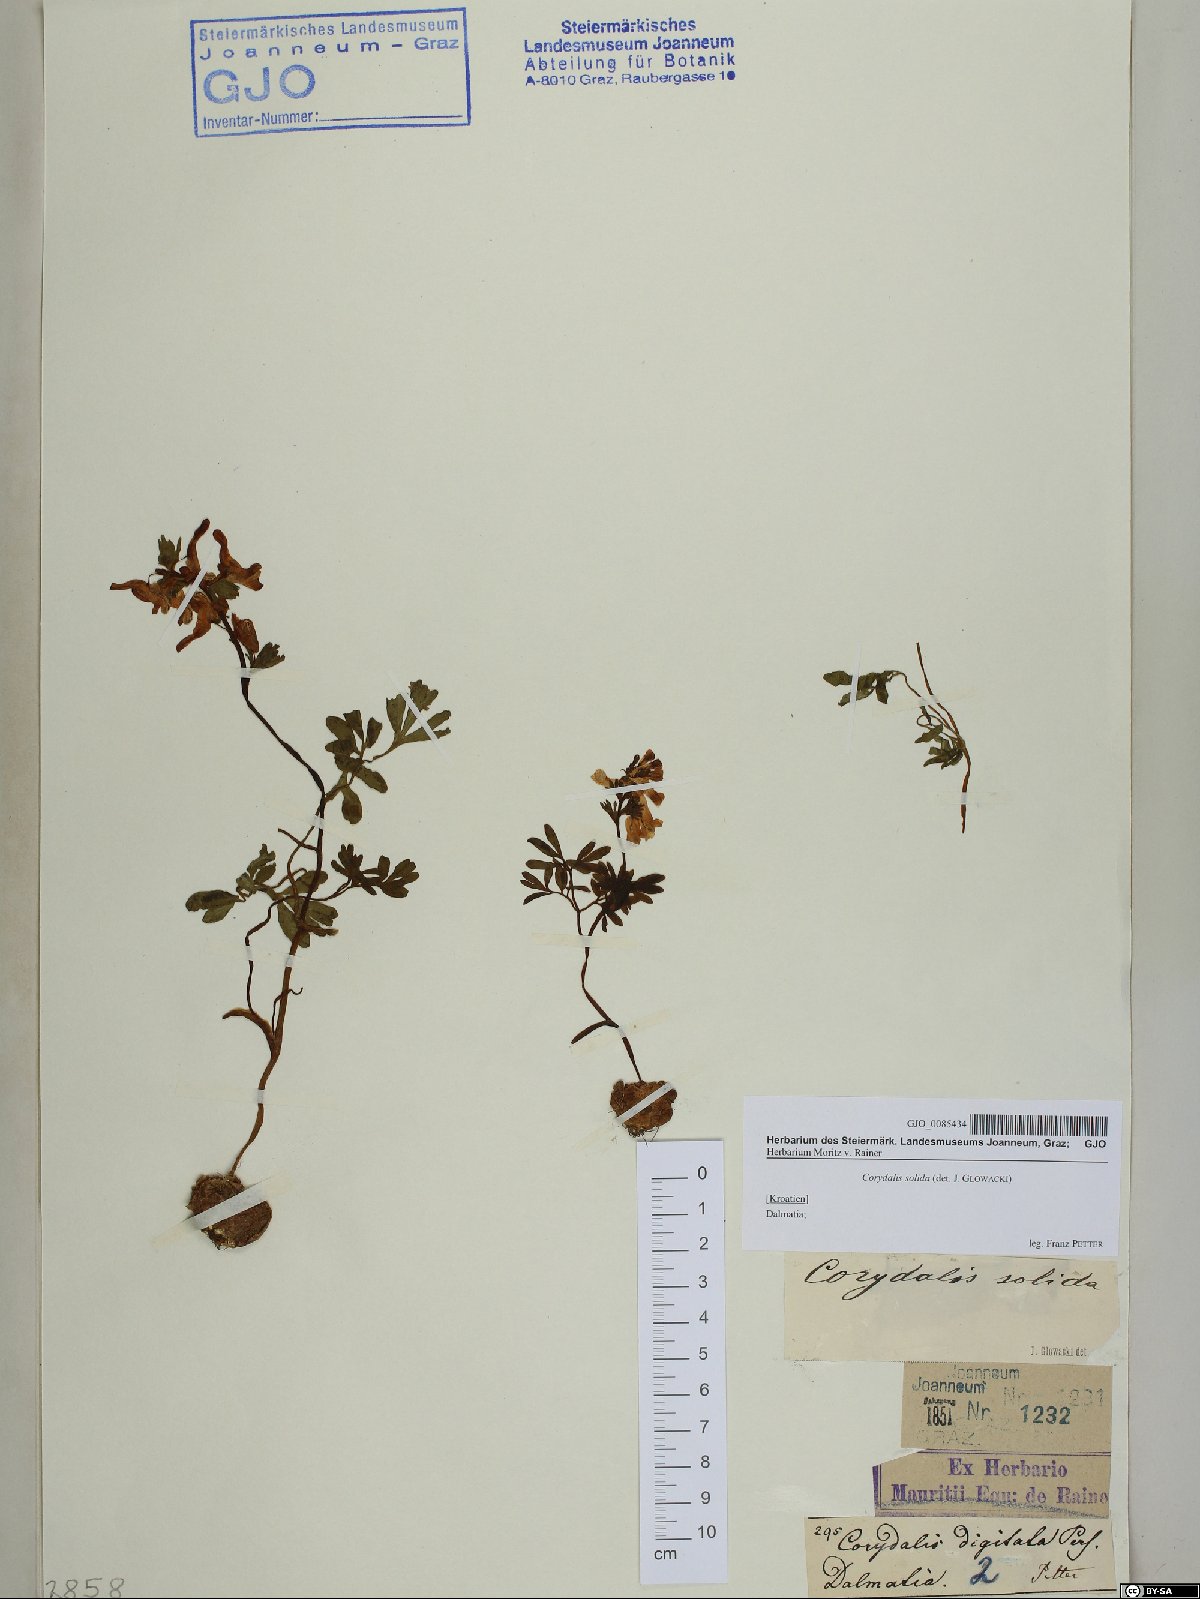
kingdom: Plantae
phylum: Tracheophyta
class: Magnoliopsida
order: Ranunculales
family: Papaveraceae
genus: Corydalis
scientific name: Corydalis solida
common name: Bird-in-a-bush
